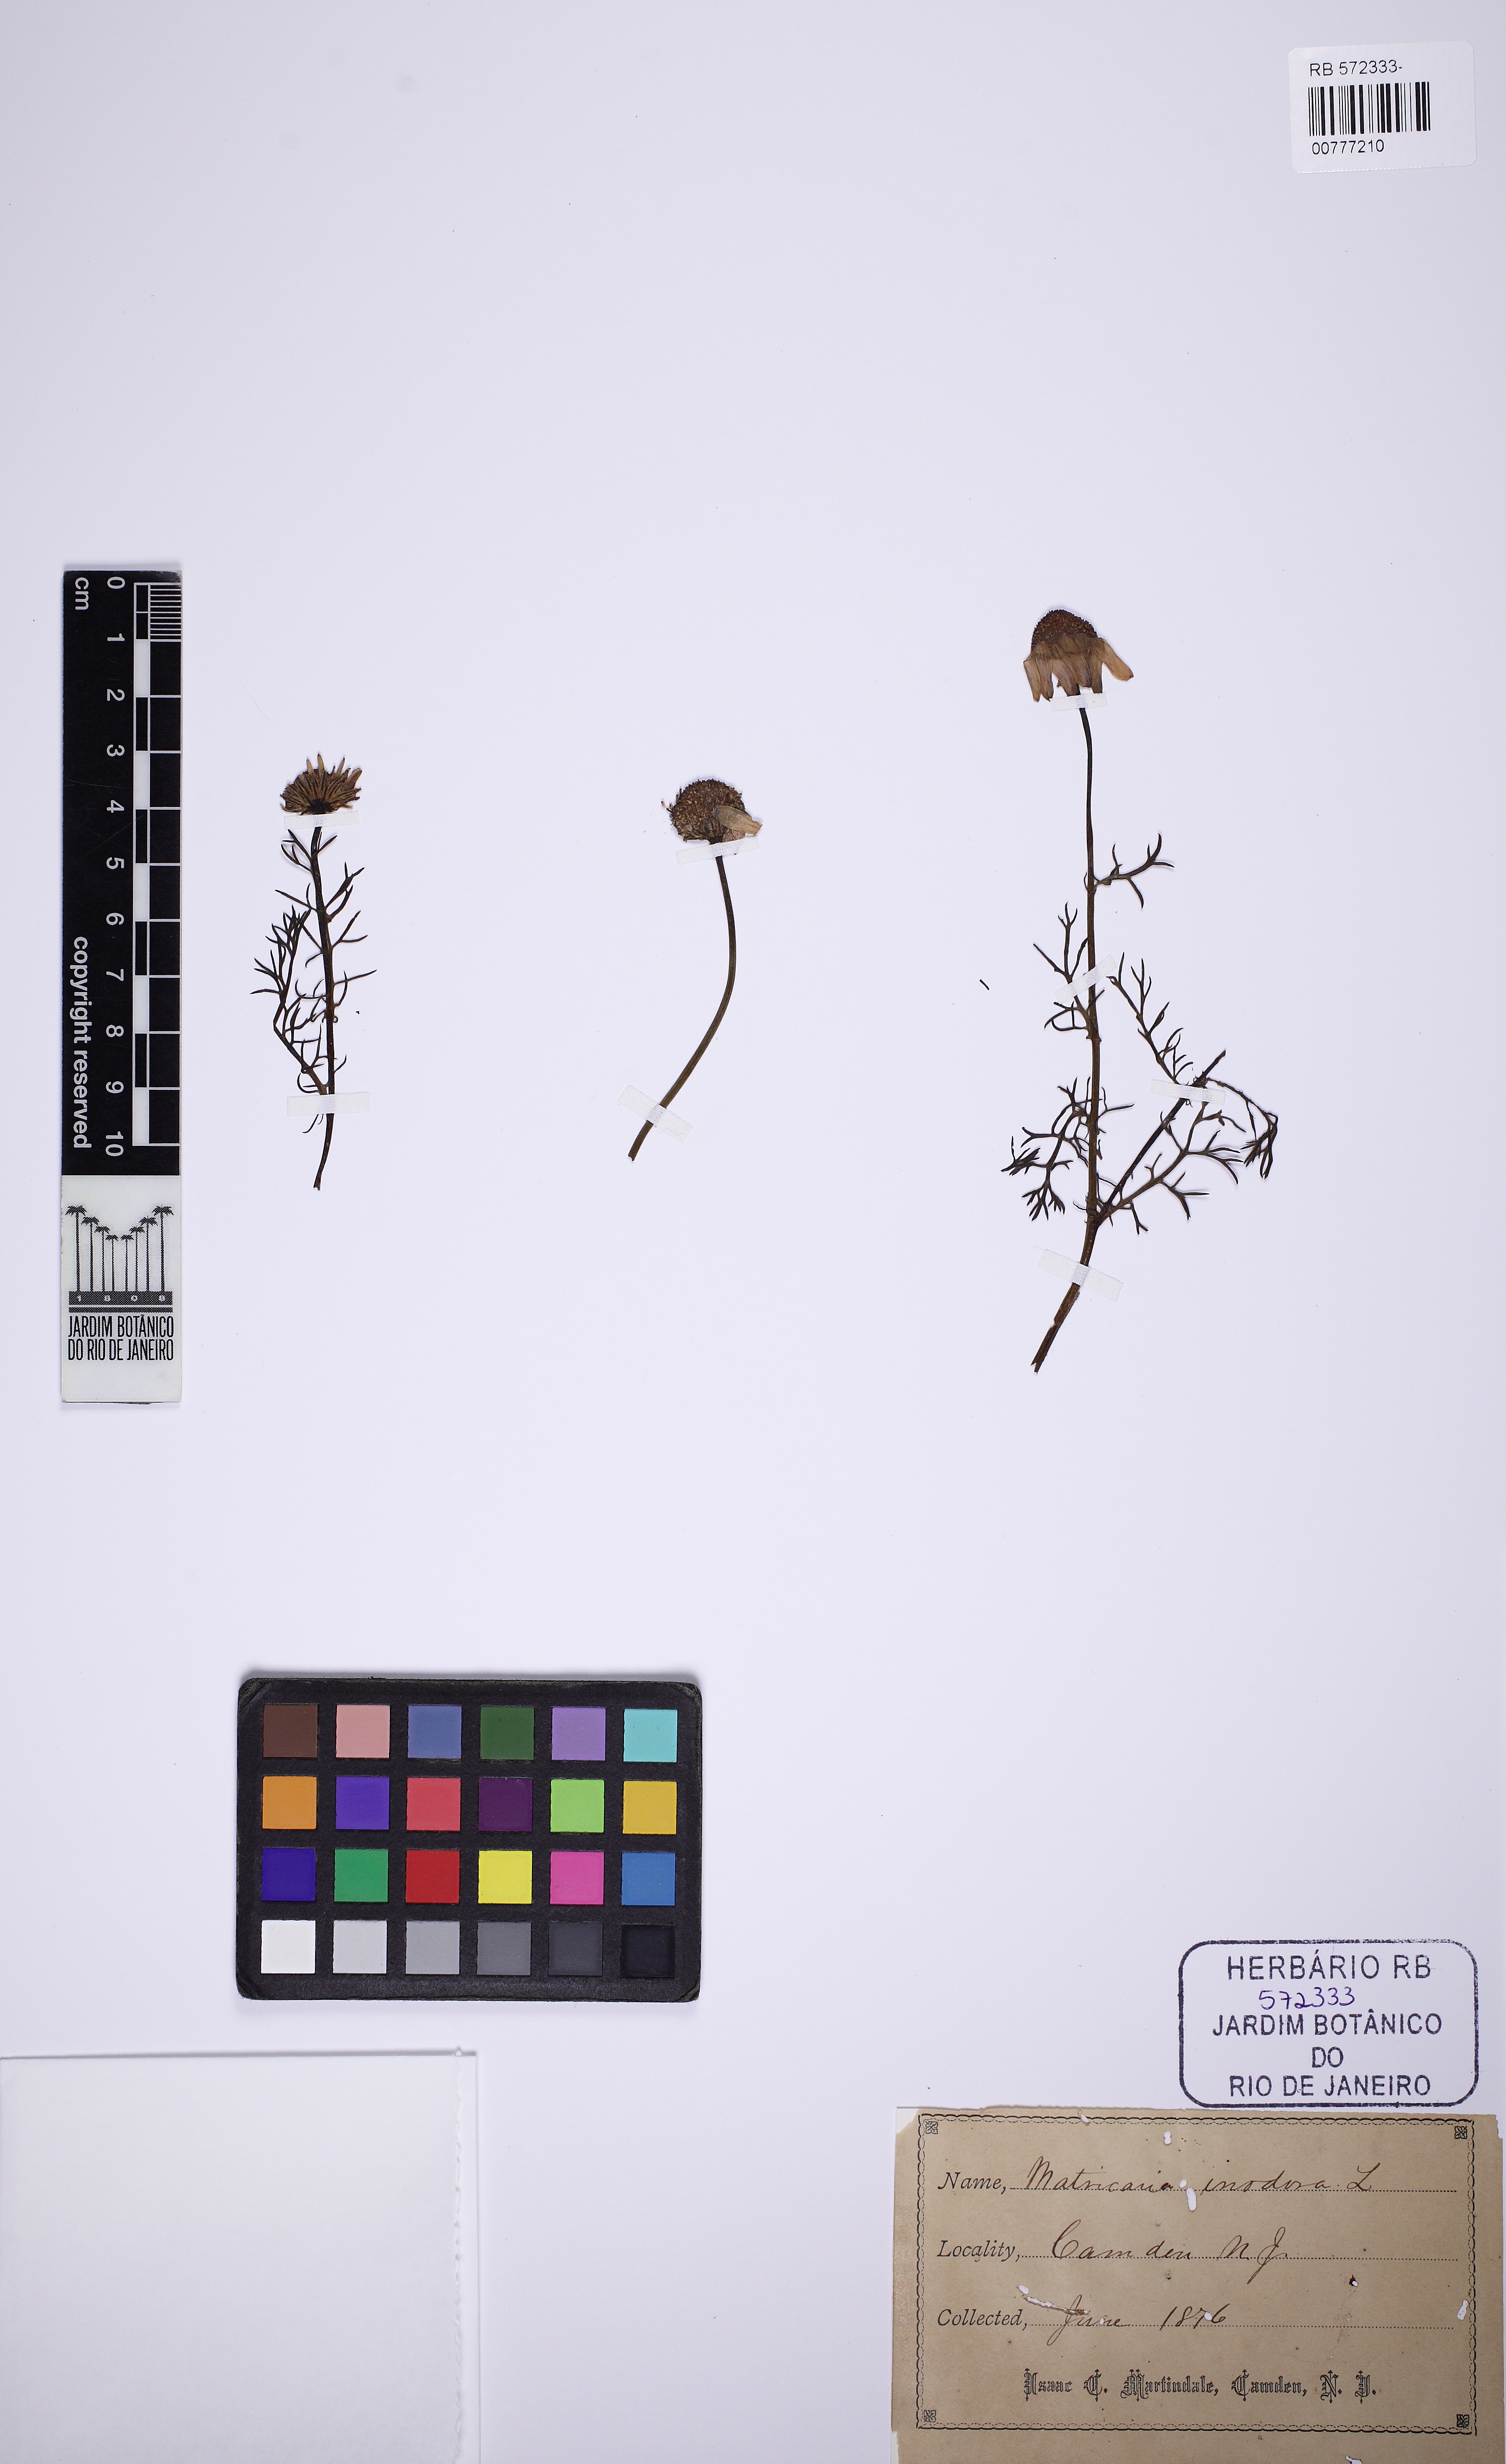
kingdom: Plantae
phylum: Tracheophyta
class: Magnoliopsida
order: Asterales
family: Asteraceae
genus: Tripleurospermum
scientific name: Tripleurospermum inodorum
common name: Scentless mayweed
